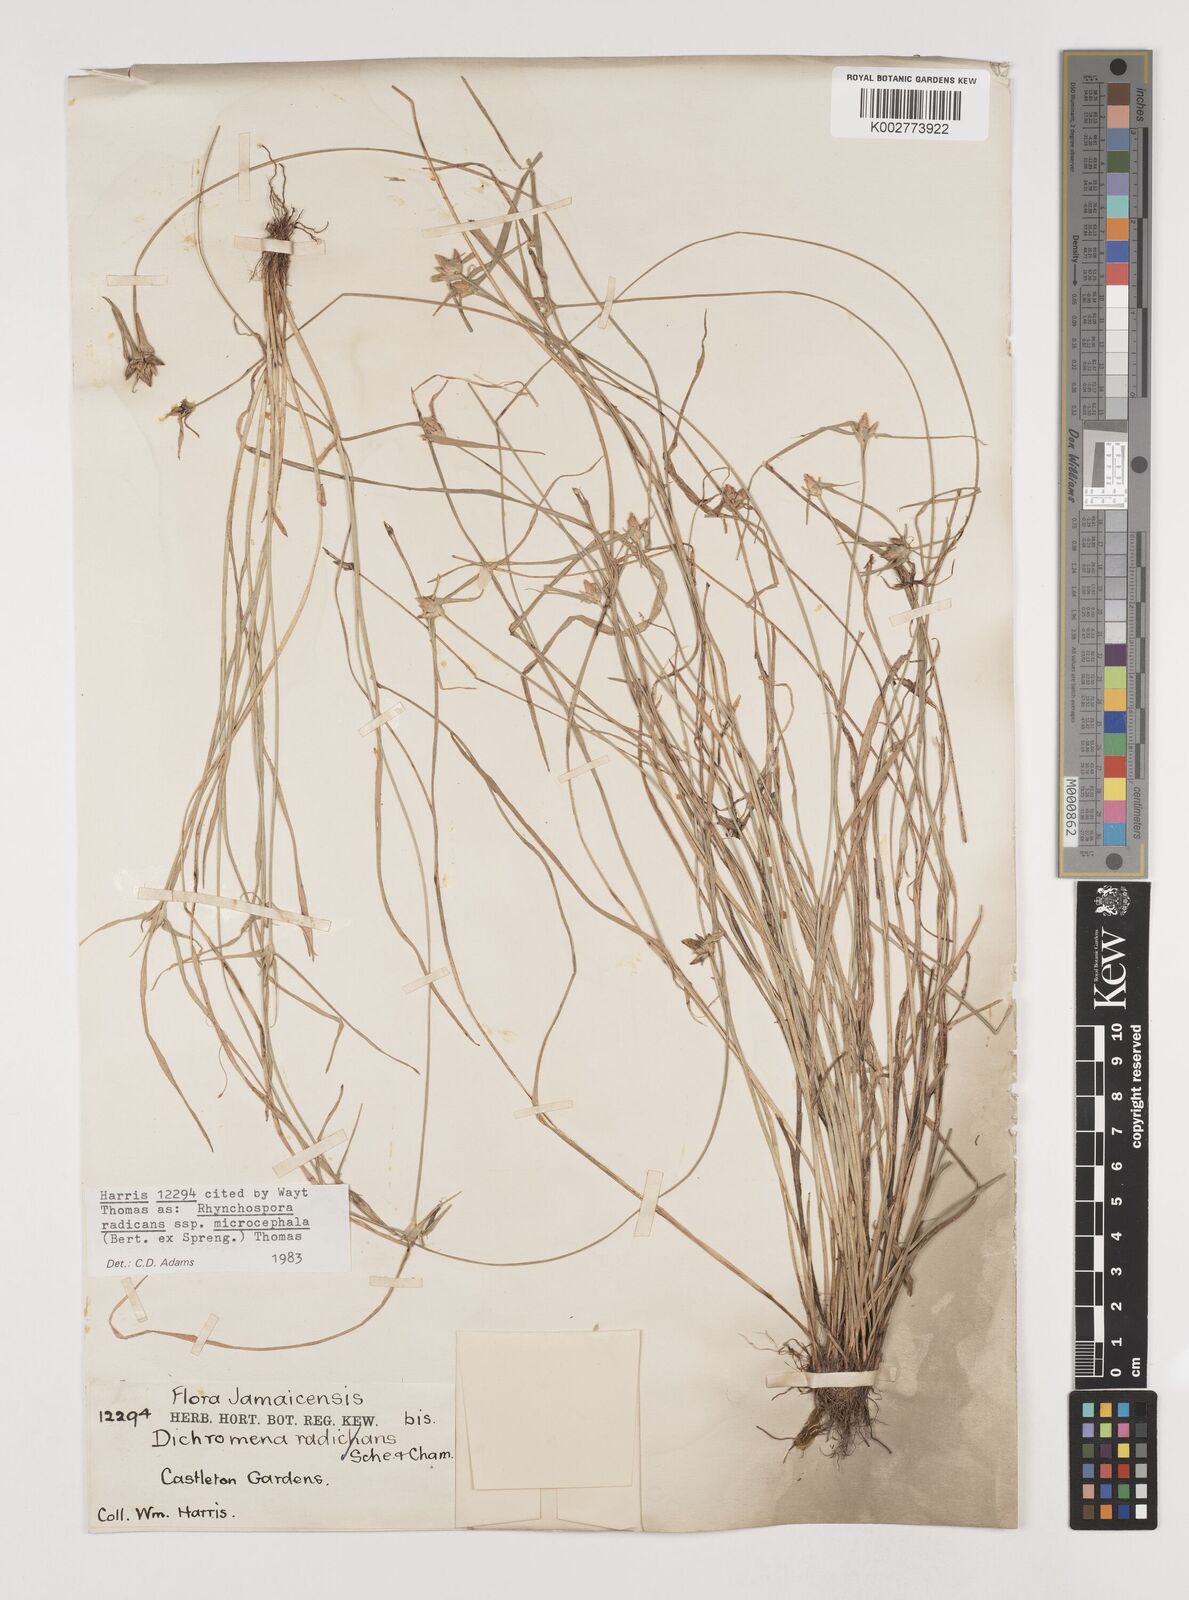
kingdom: Plantae
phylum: Tracheophyta
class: Liliopsida
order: Poales
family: Cyperaceae
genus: Rhynchospora
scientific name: Rhynchospora radicans
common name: Tropical whitetop
